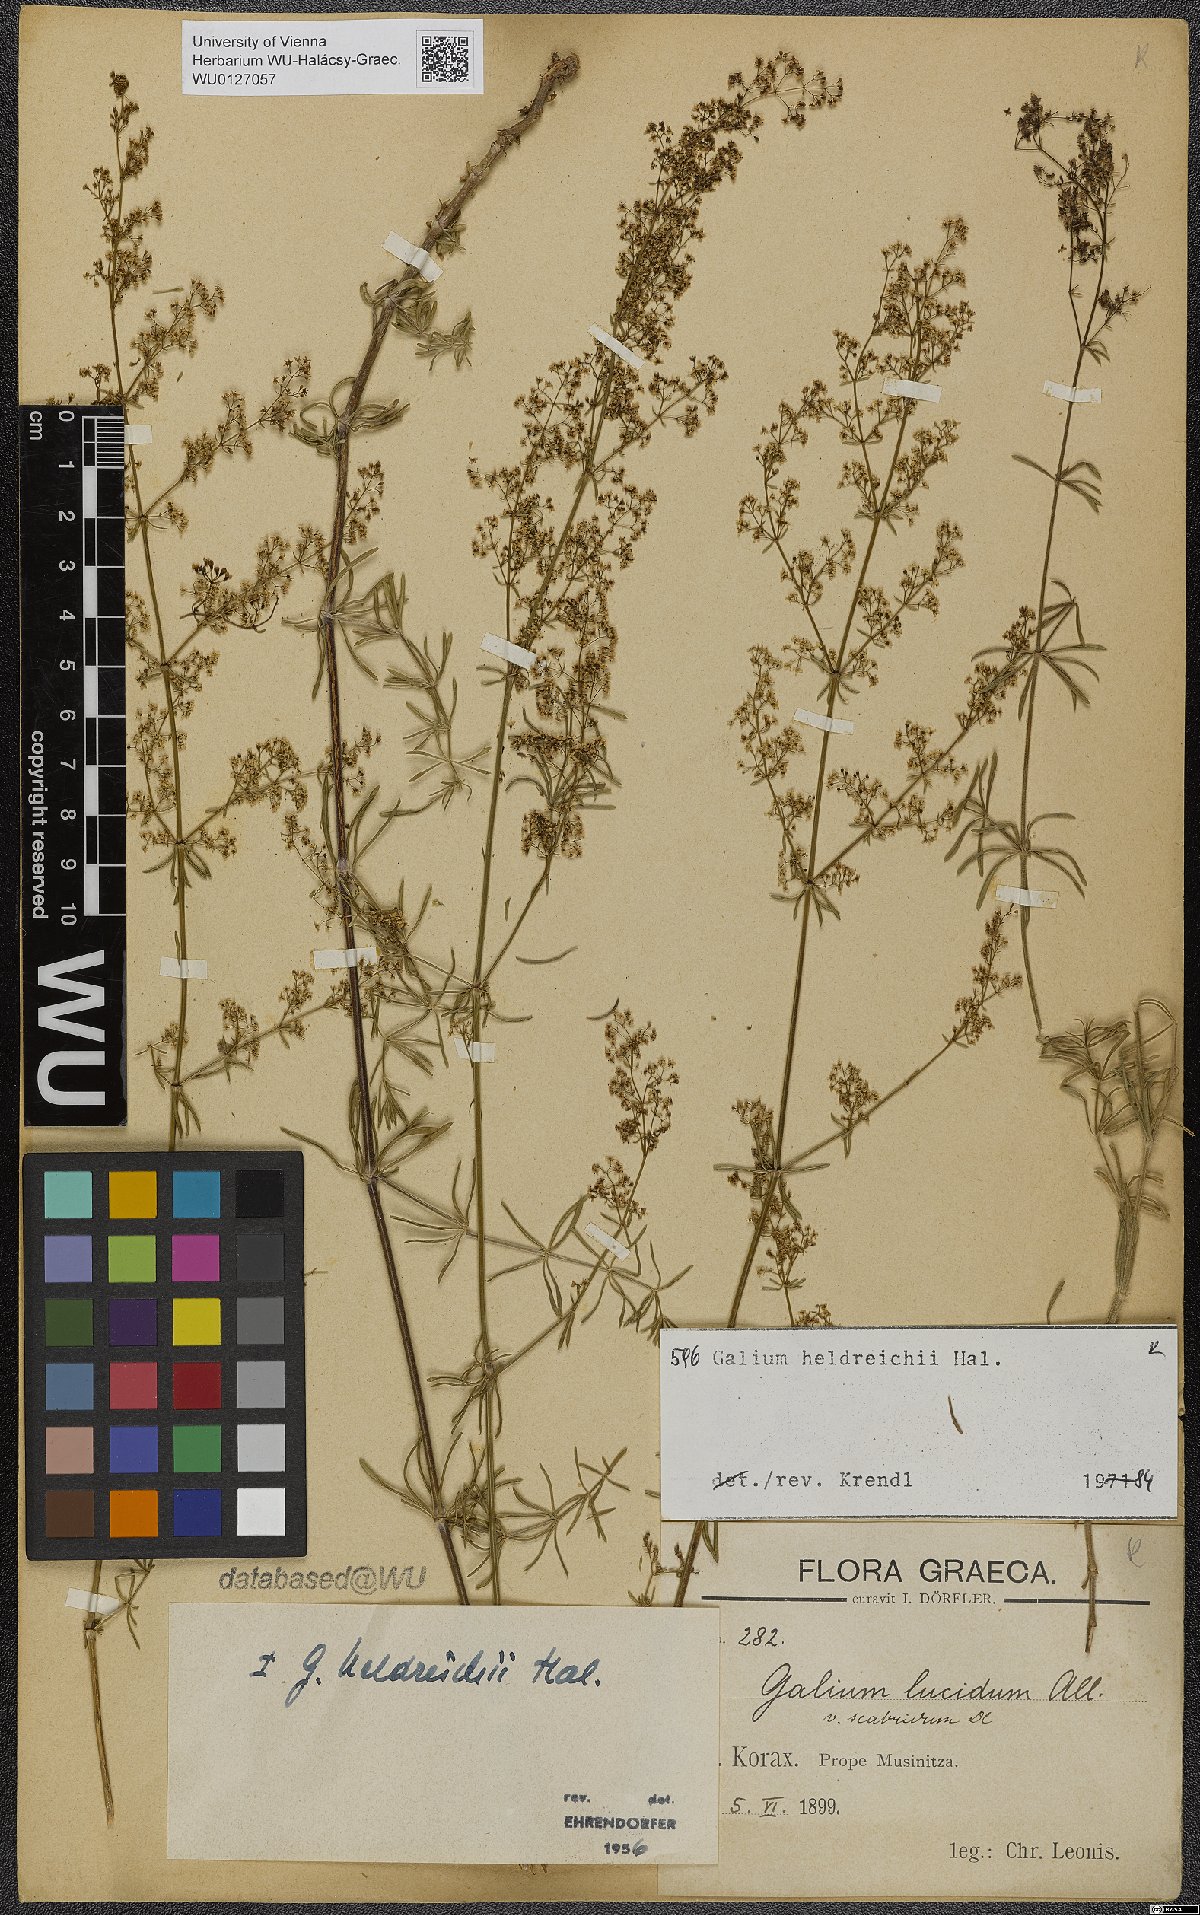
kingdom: Plantae
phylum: Tracheophyta
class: Magnoliopsida
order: Gentianales
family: Rubiaceae
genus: Galium
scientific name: Galium heldreichii
